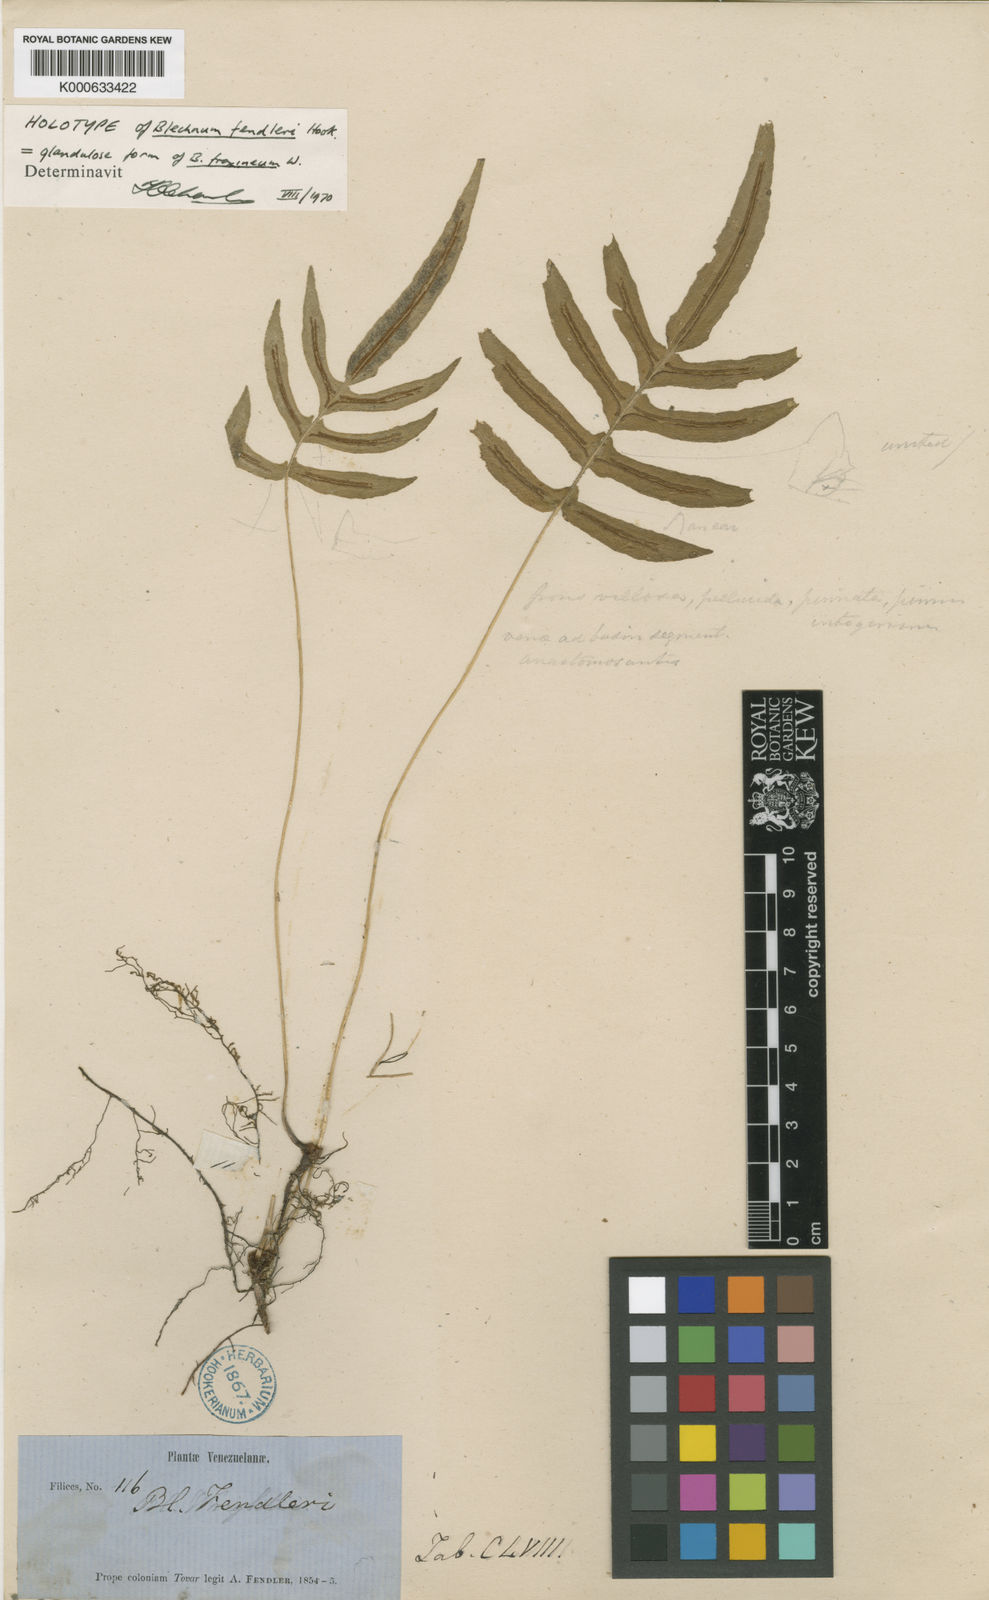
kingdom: Plantae
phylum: Tracheophyta
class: Polypodiopsida
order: Polypodiales
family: Blechnaceae
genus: Blechnum
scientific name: Blechnum gracile
